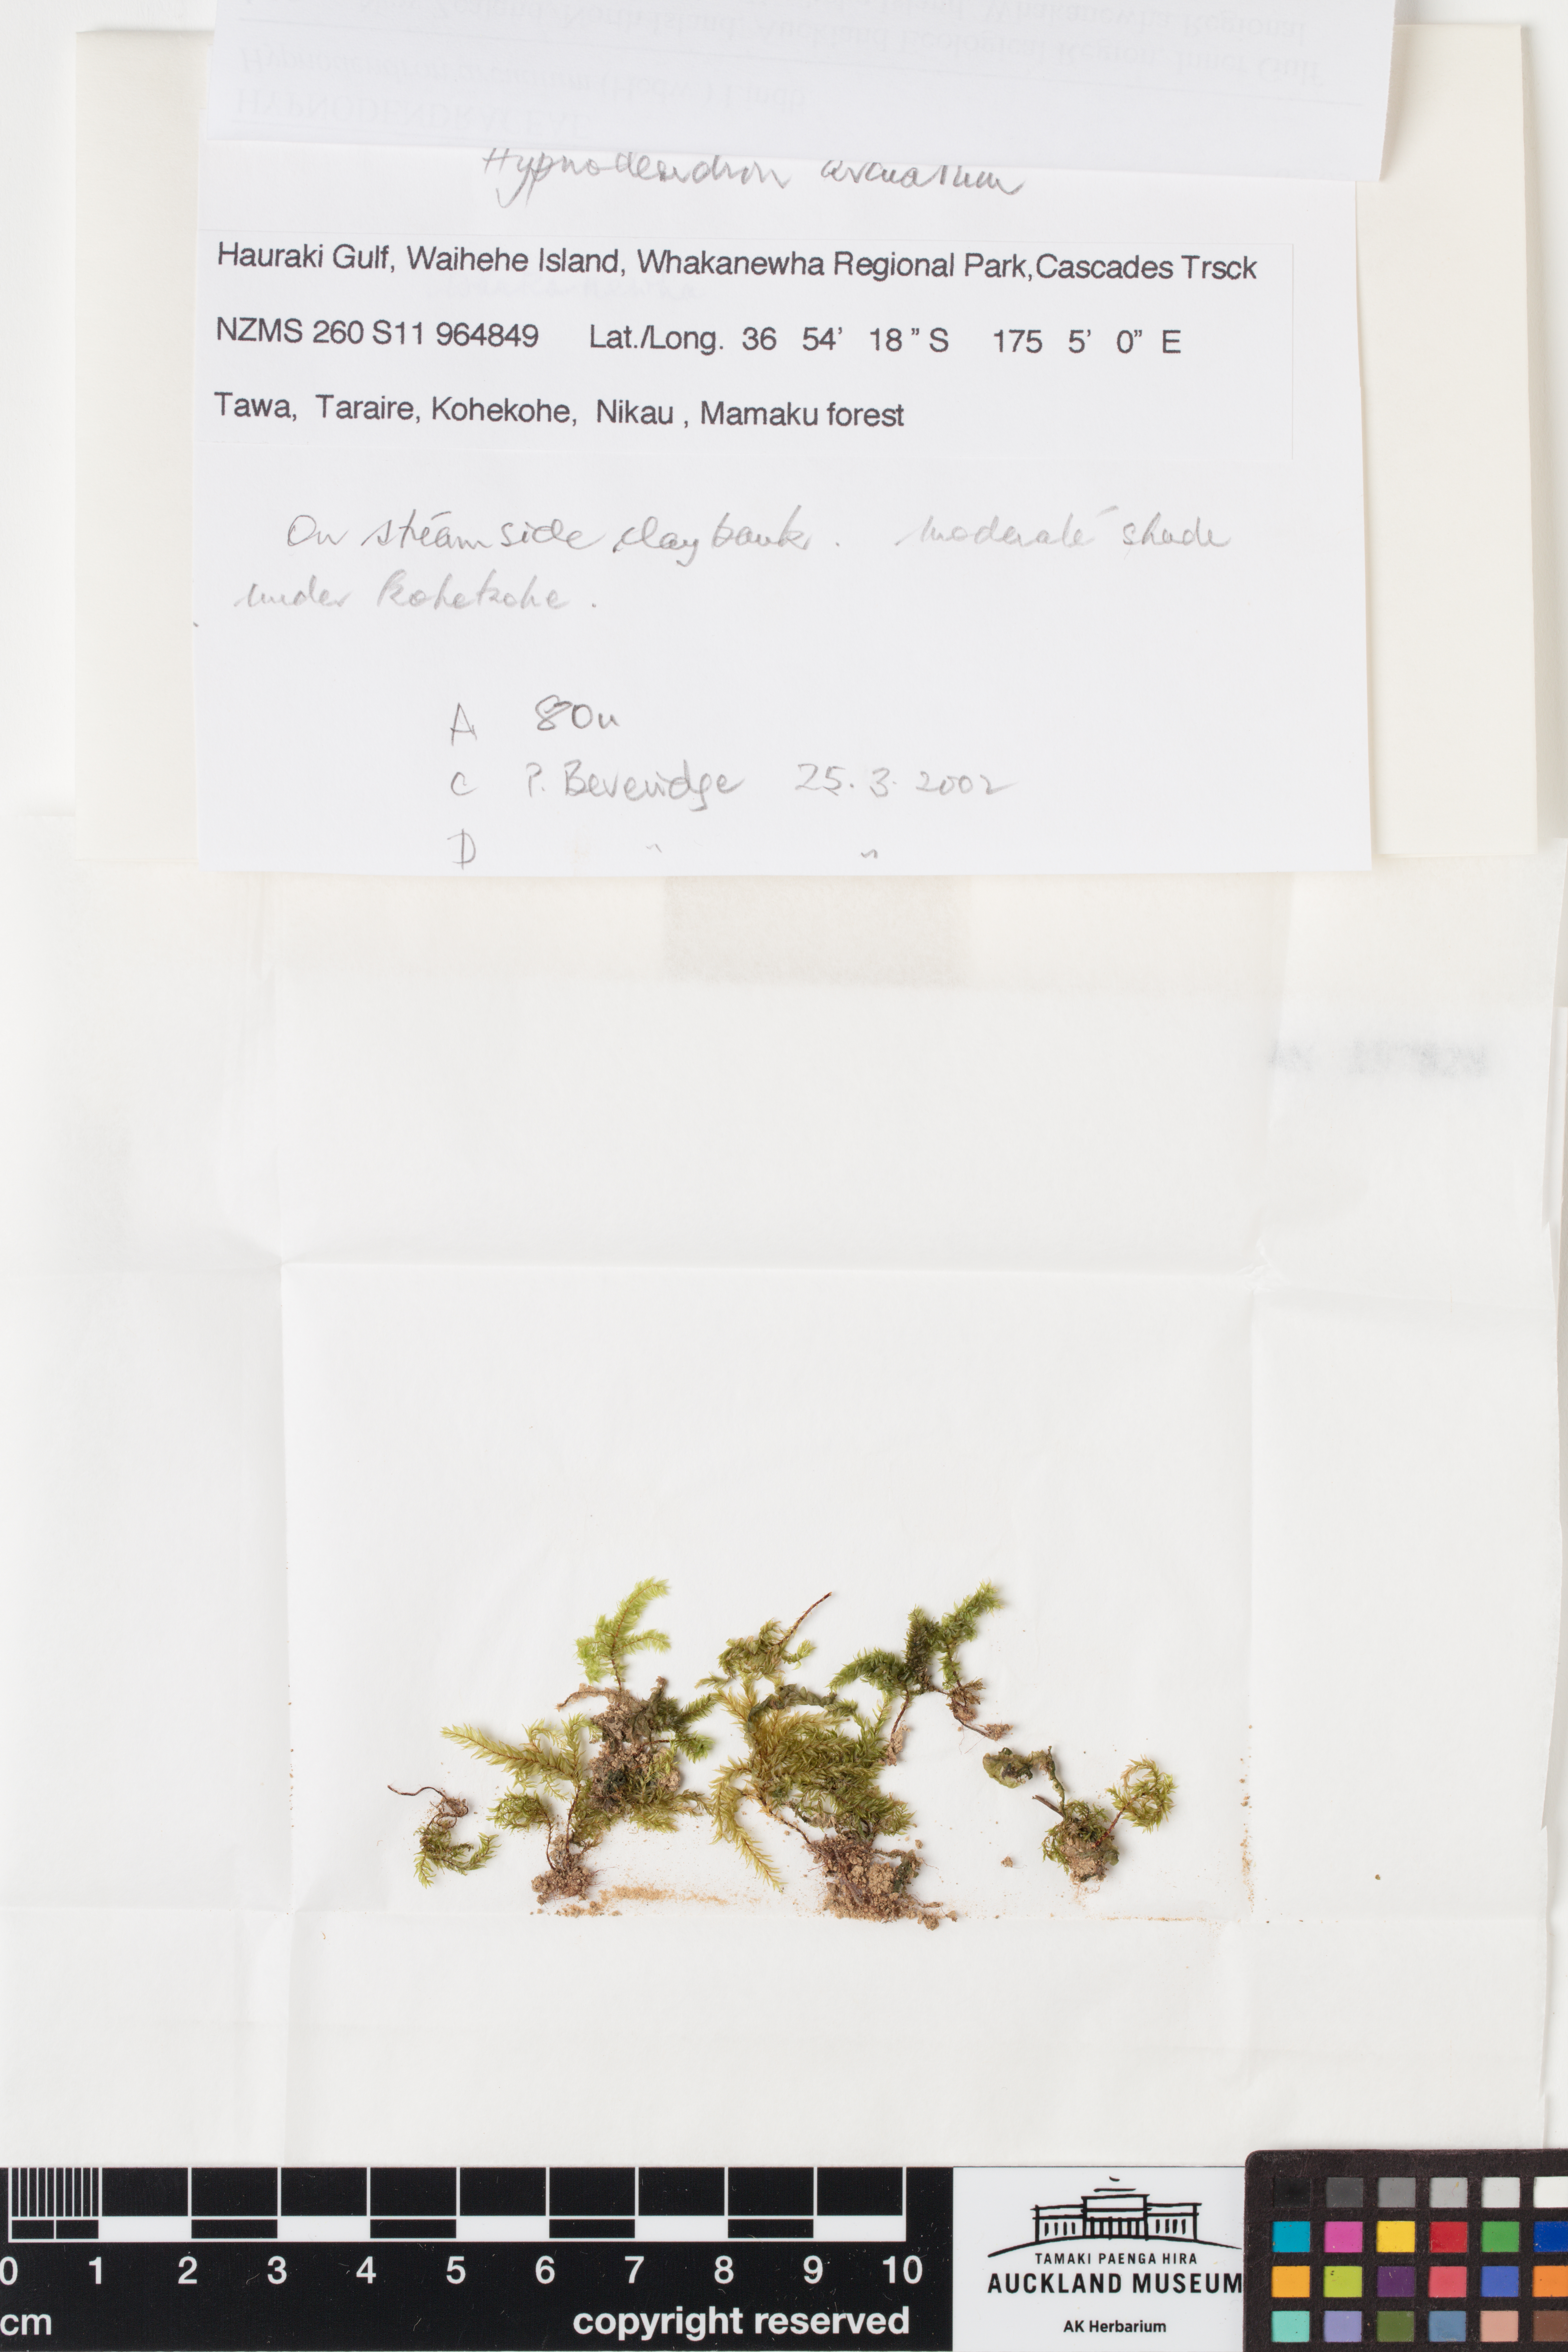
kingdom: Plantae
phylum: Bryophyta
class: Bryopsida
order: Hypnodendrales
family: Spiridentaceae
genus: Hypnodendron
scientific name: Hypnodendron arcuatum
